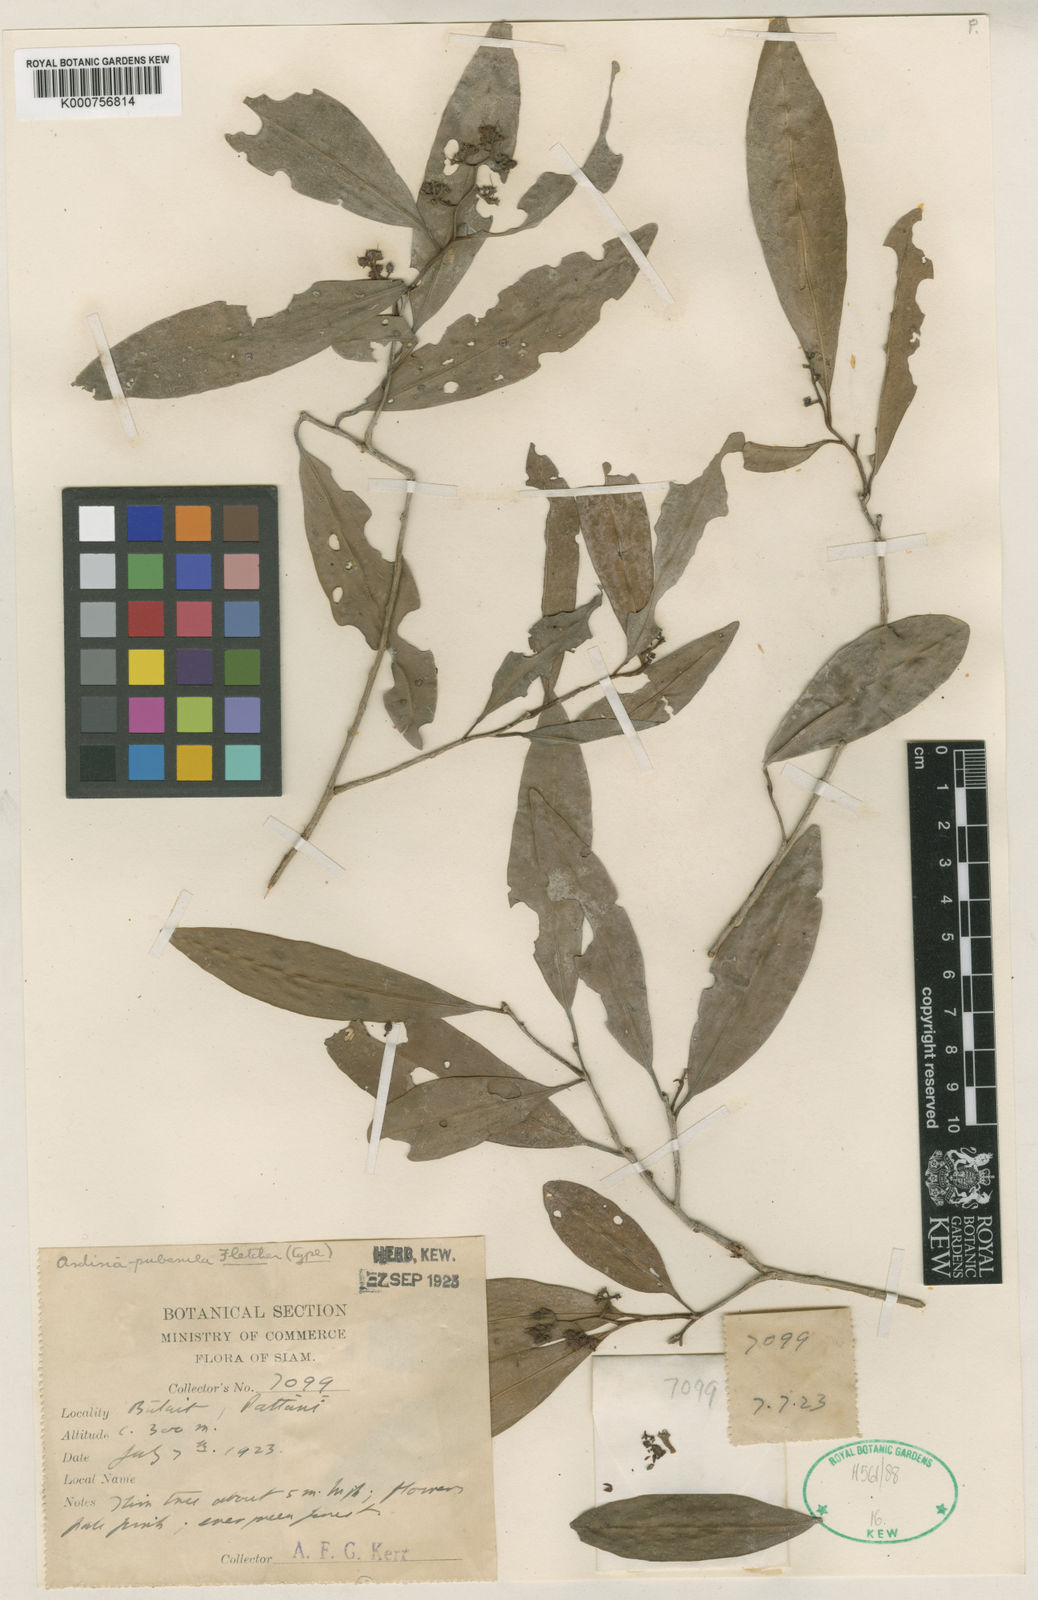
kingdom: Plantae
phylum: Tracheophyta
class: Magnoliopsida
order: Ericales
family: Primulaceae
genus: Ardisia
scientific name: Ardisia puberula
